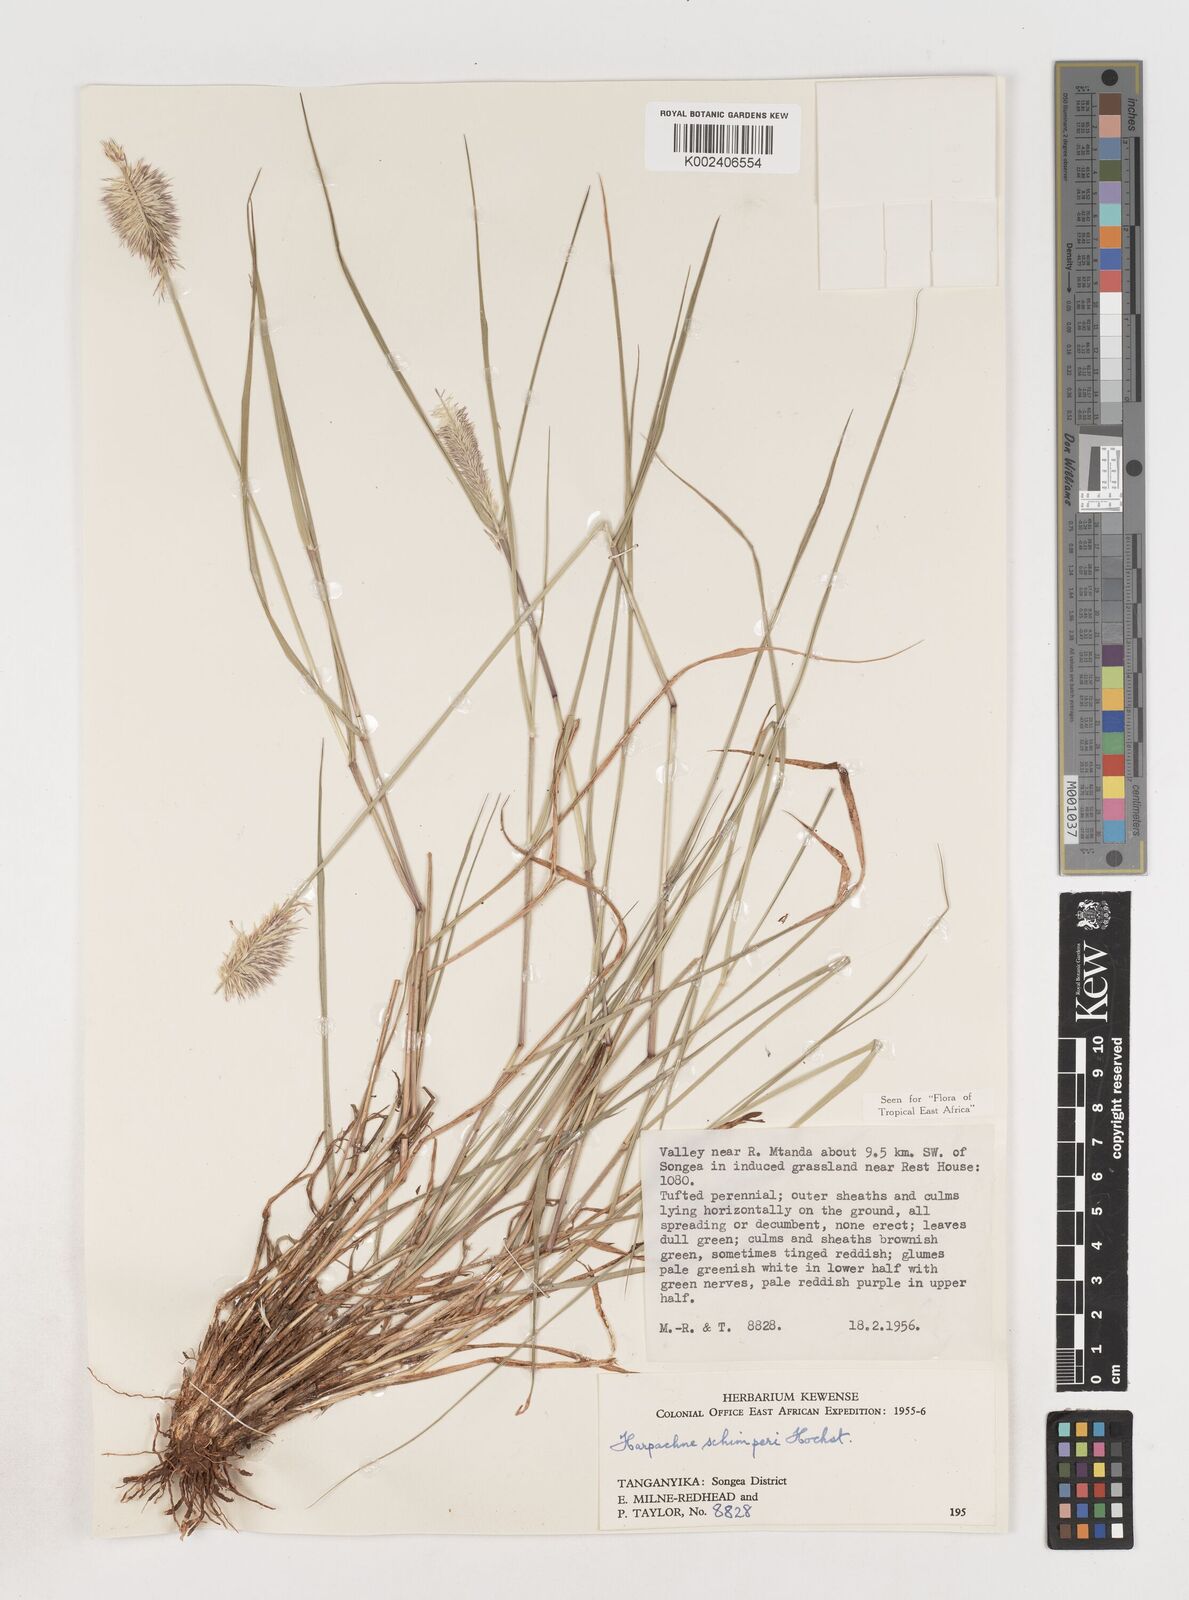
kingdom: Plantae
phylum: Tracheophyta
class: Liliopsida
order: Poales
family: Poaceae
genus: Harpachne
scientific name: Harpachne schimperi
